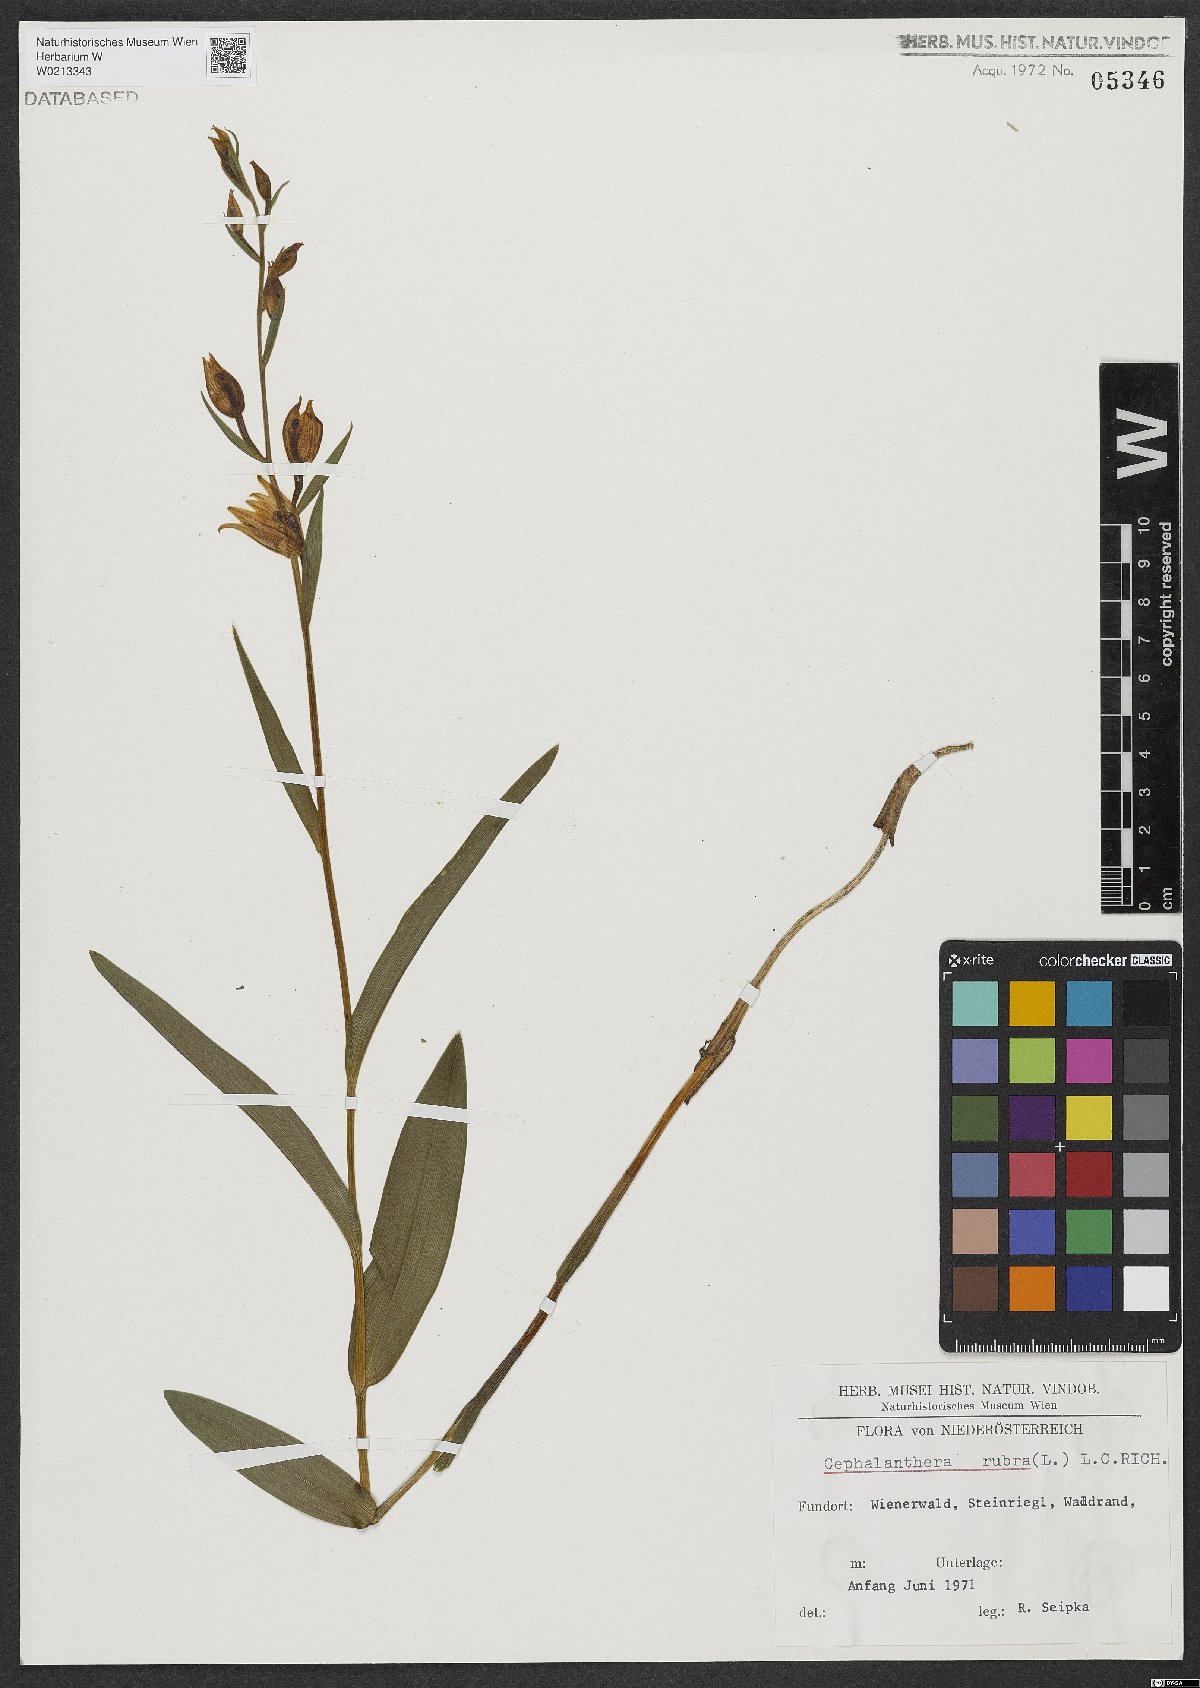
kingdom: Plantae
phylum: Tracheophyta
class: Liliopsida
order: Asparagales
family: Orchidaceae
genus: Cephalanthera
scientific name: Cephalanthera rubra
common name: Red helleborine
